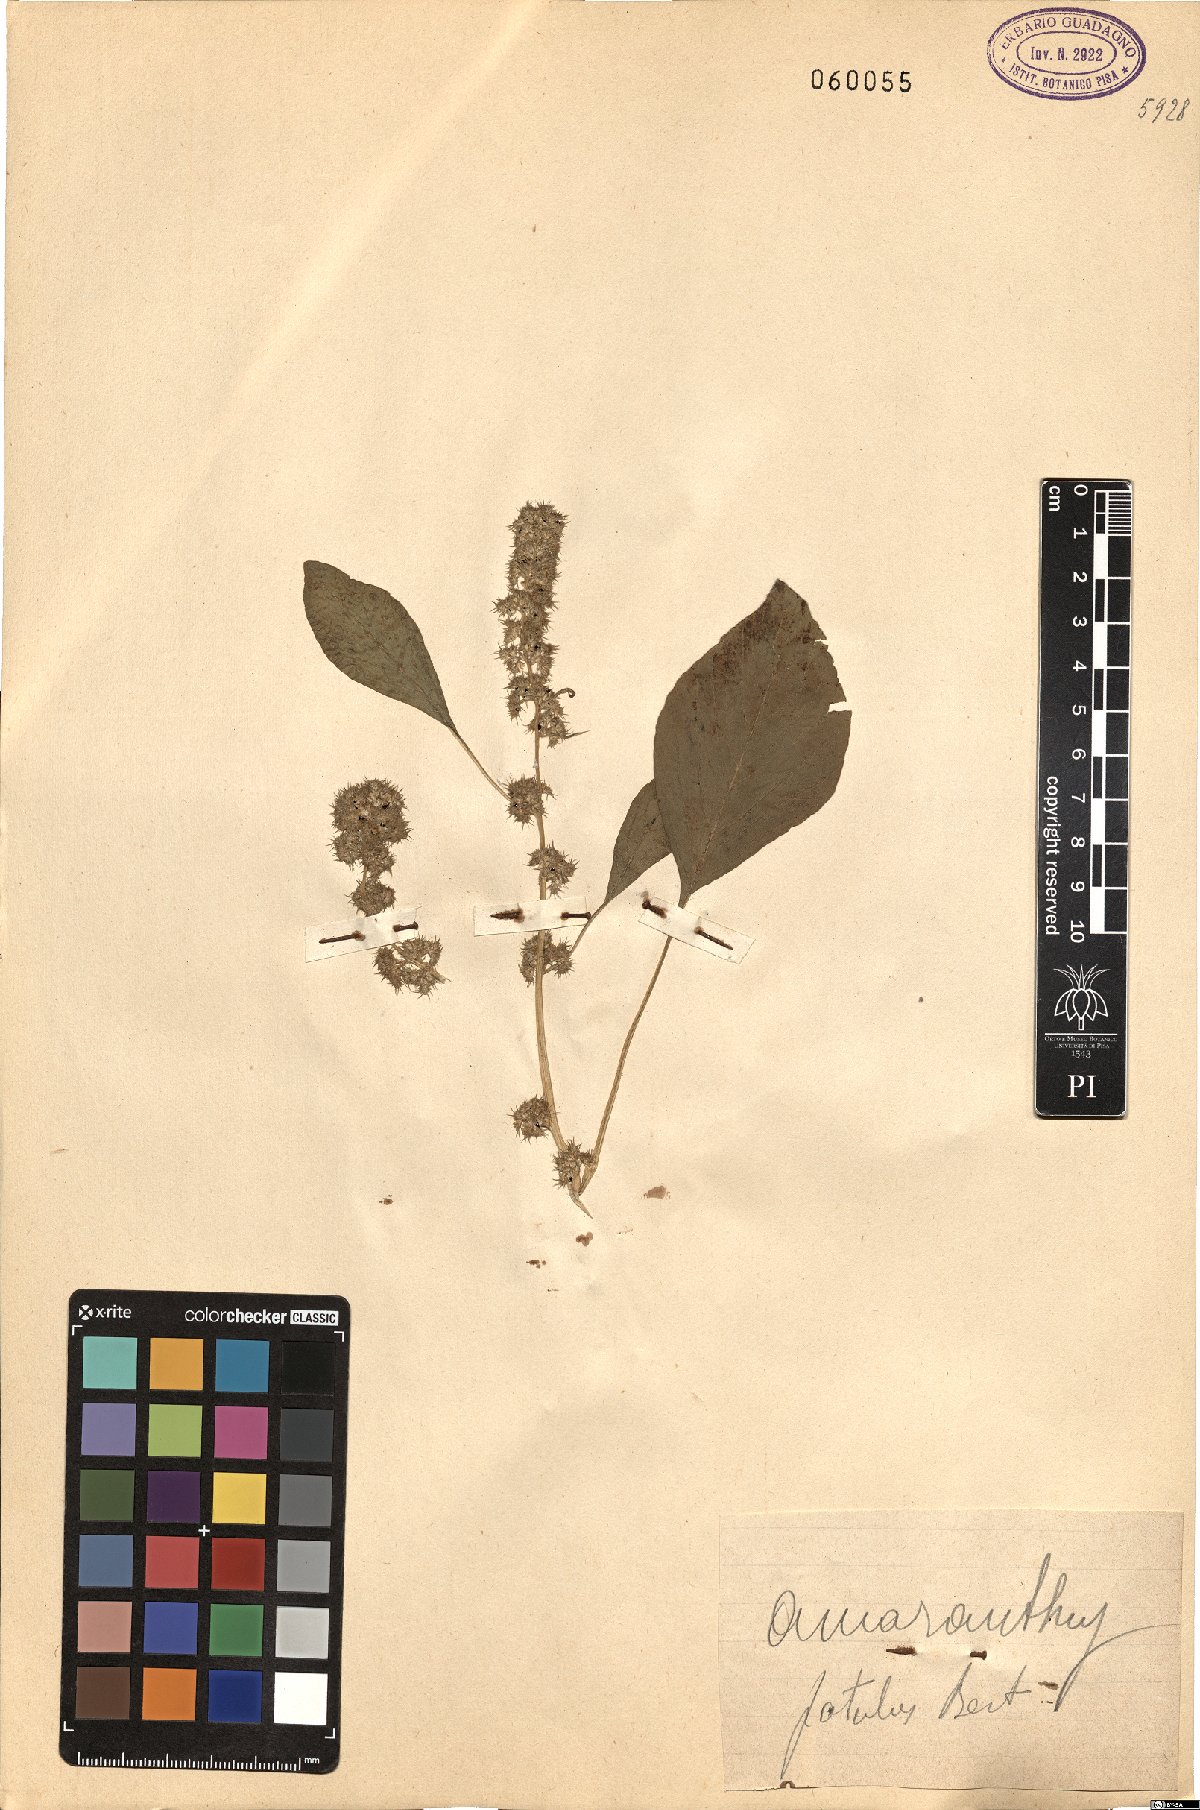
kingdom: Plantae
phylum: Tracheophyta
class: Magnoliopsida
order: Caryophyllales
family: Amaranthaceae
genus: Amaranthus
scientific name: Amaranthus hybridus
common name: Green amaranth
